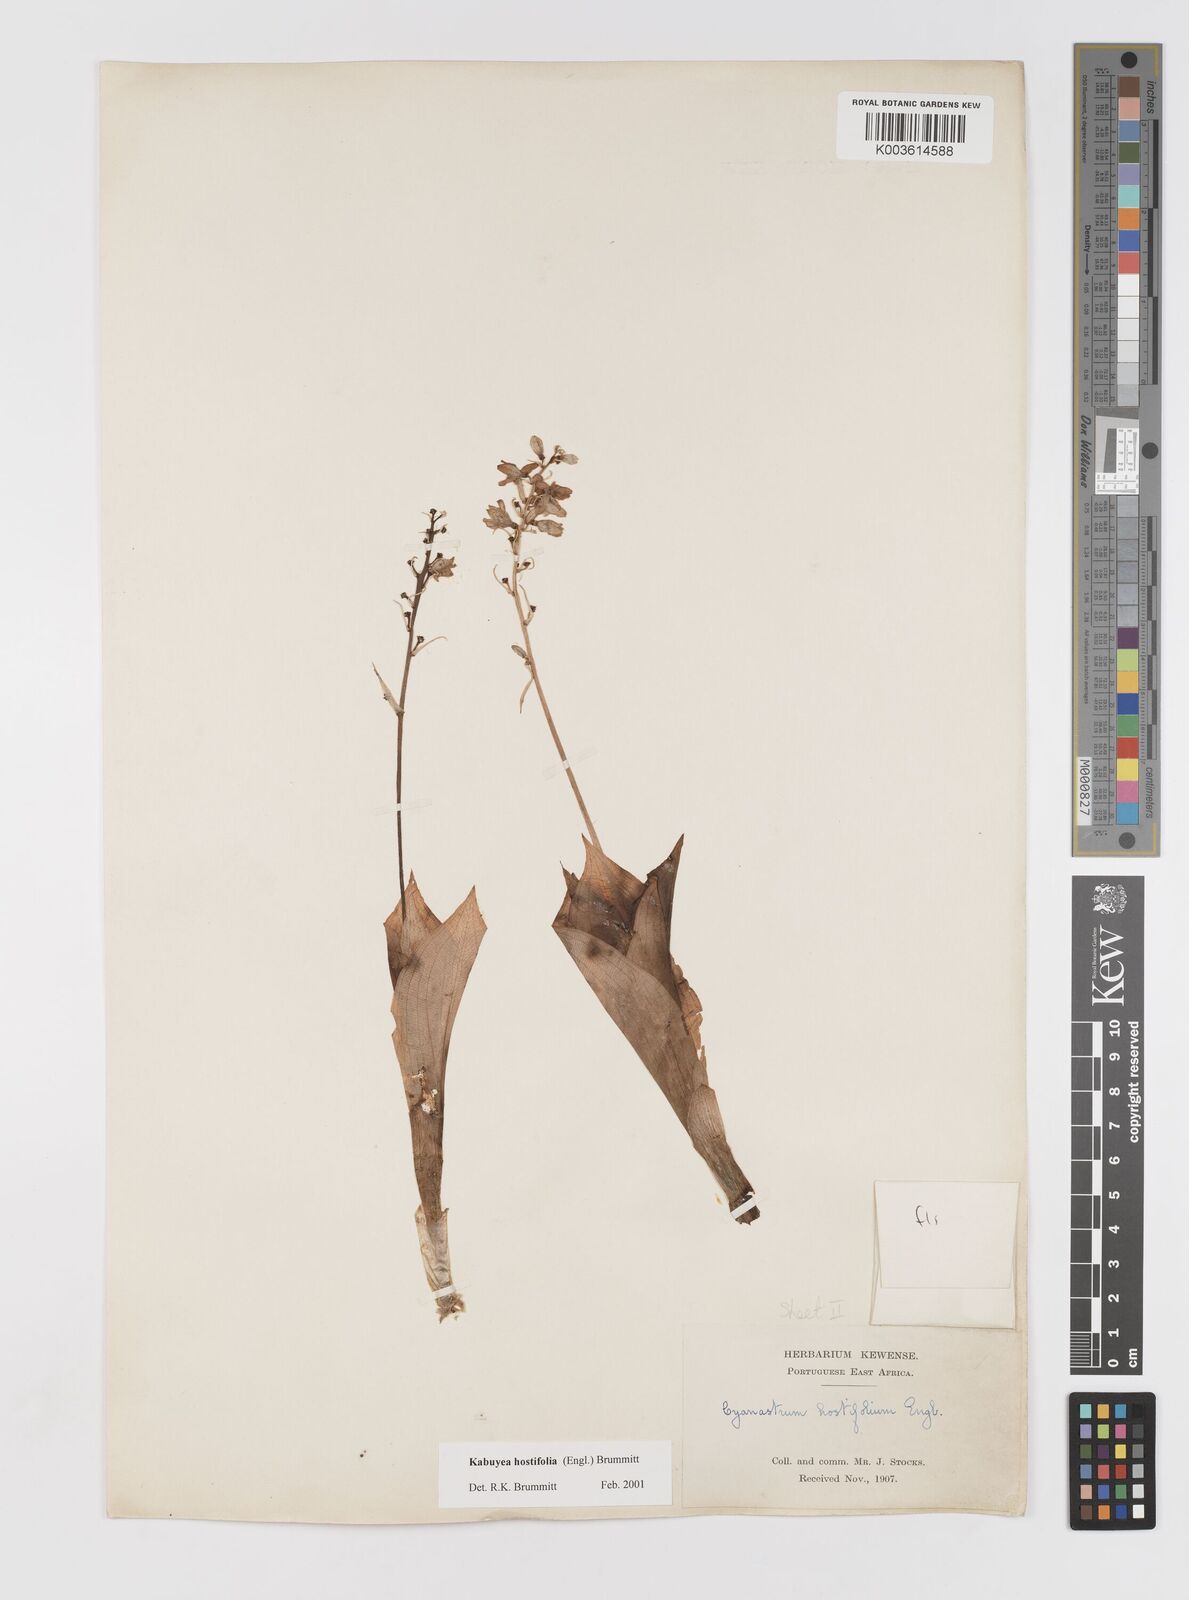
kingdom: Plantae
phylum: Tracheophyta
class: Liliopsida
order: Asparagales
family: Tecophilaeaceae
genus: Kabuyea
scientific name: Kabuyea hostifolia
